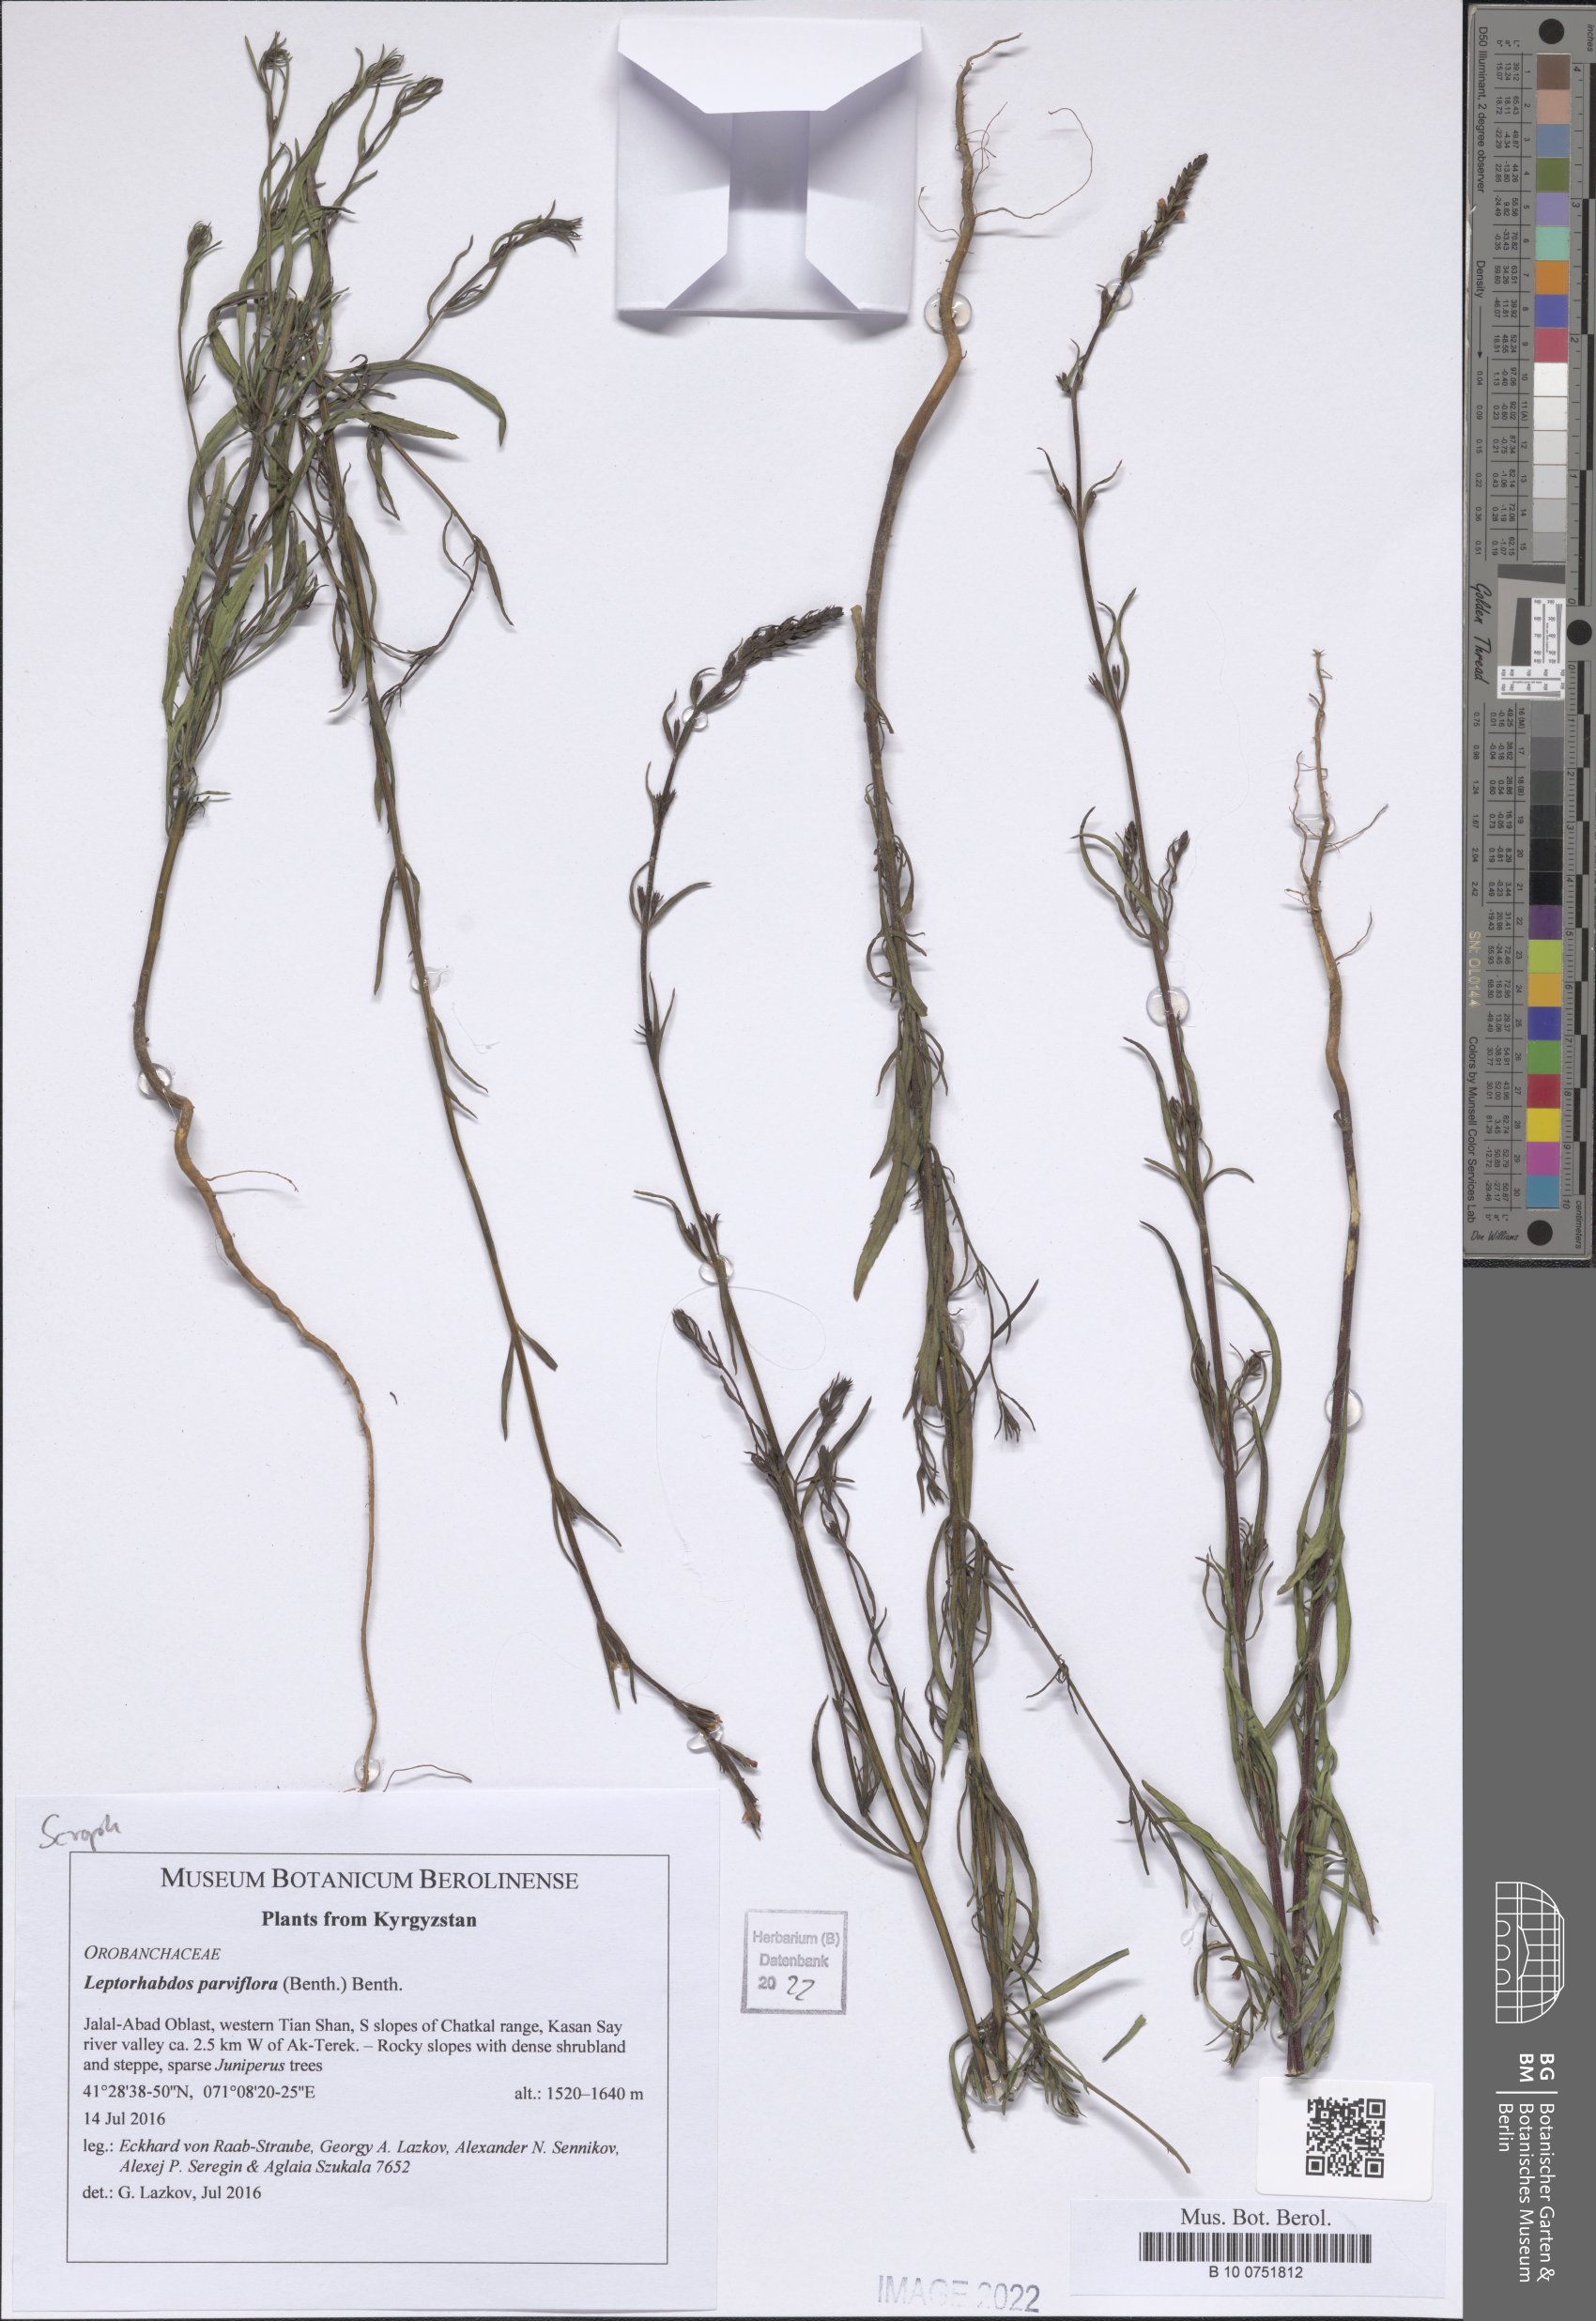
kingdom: Plantae
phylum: Tracheophyta
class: Magnoliopsida
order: Lamiales
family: Orobanchaceae
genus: Leptorhabdos
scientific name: Leptorhabdos parviflora
